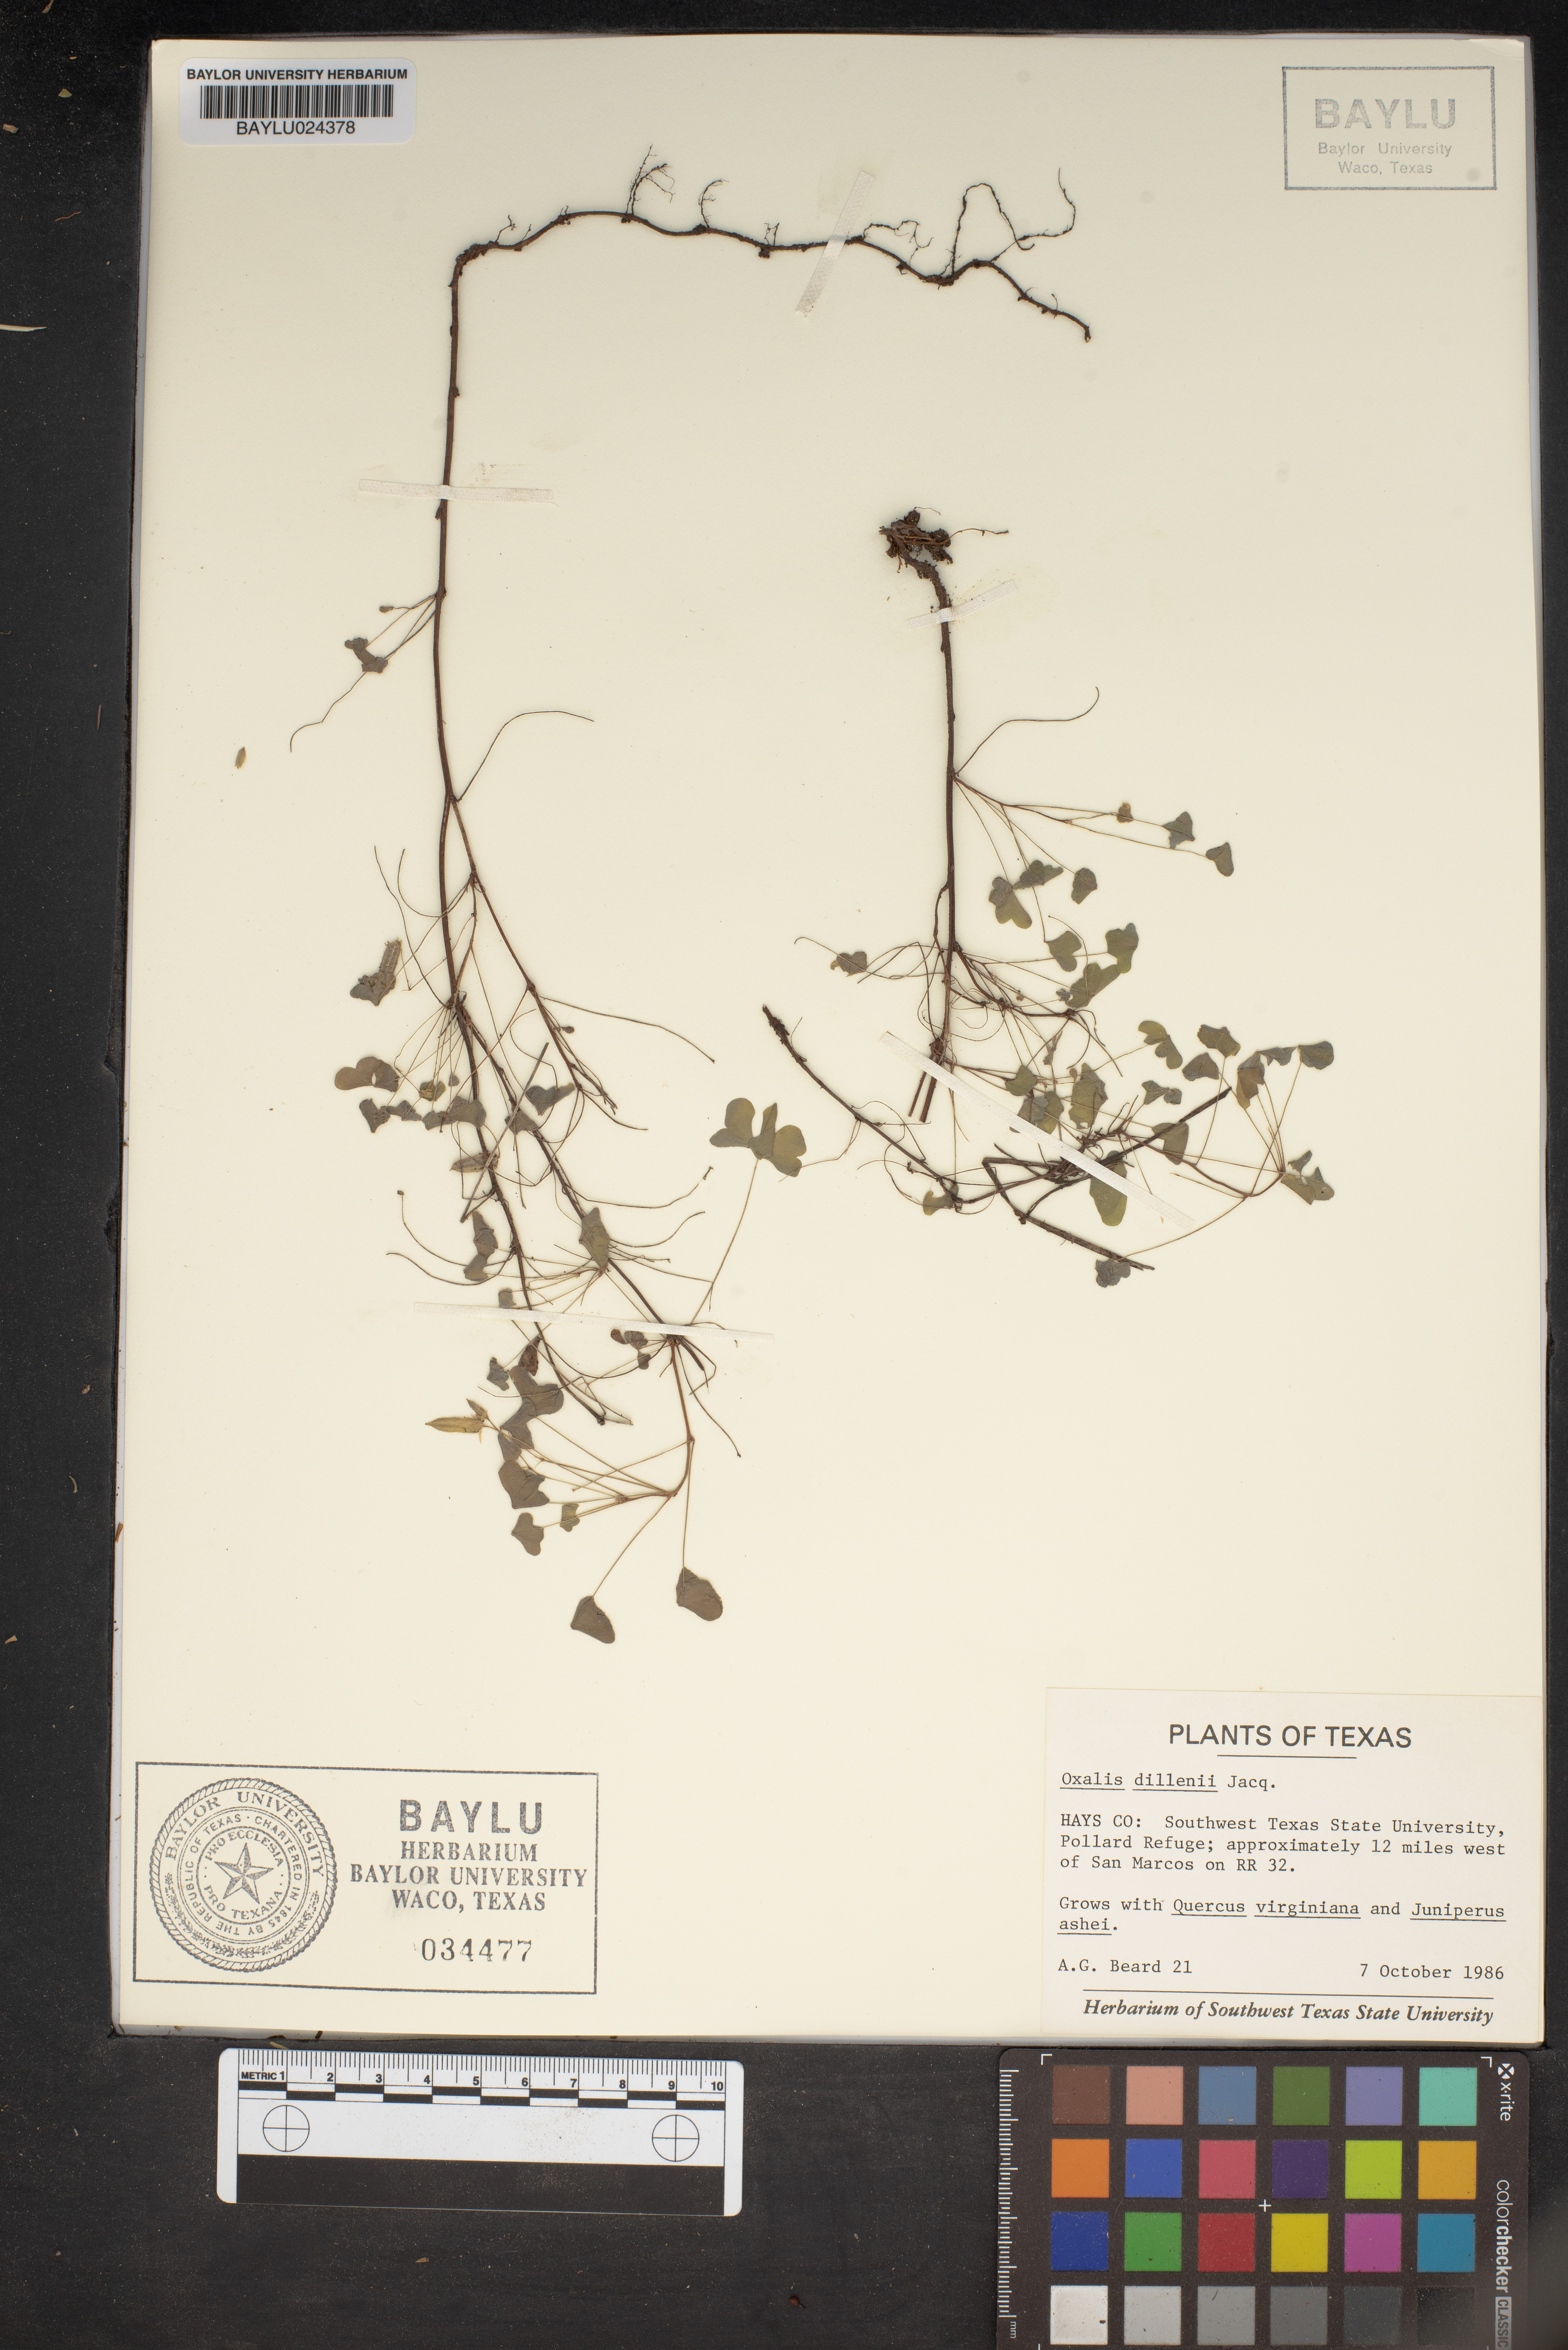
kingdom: Plantae
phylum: Tracheophyta
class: Magnoliopsida
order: Oxalidales
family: Oxalidaceae
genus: Oxalis
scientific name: Oxalis dillenii
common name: Sussex yellow-sorrel
